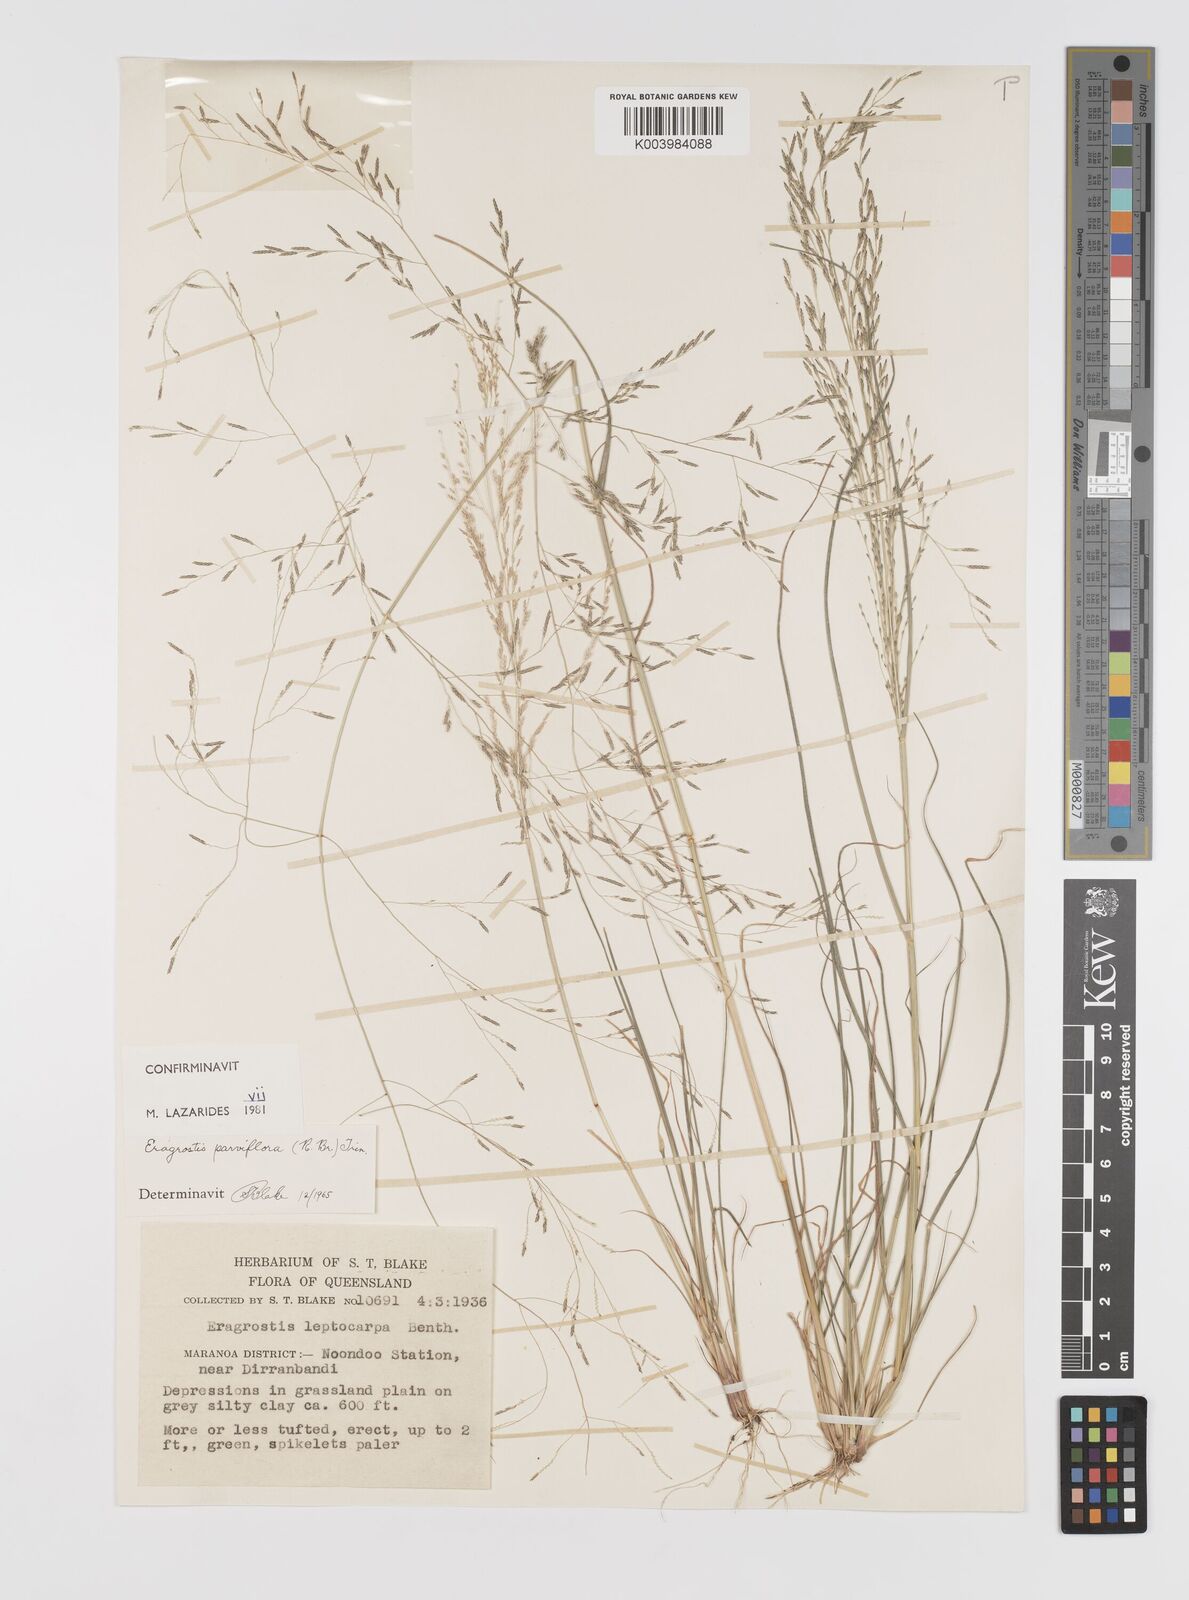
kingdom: Plantae
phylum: Tracheophyta
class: Liliopsida
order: Poales
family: Poaceae
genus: Eragrostis
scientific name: Eragrostis parviflora
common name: Weeping love-grass
